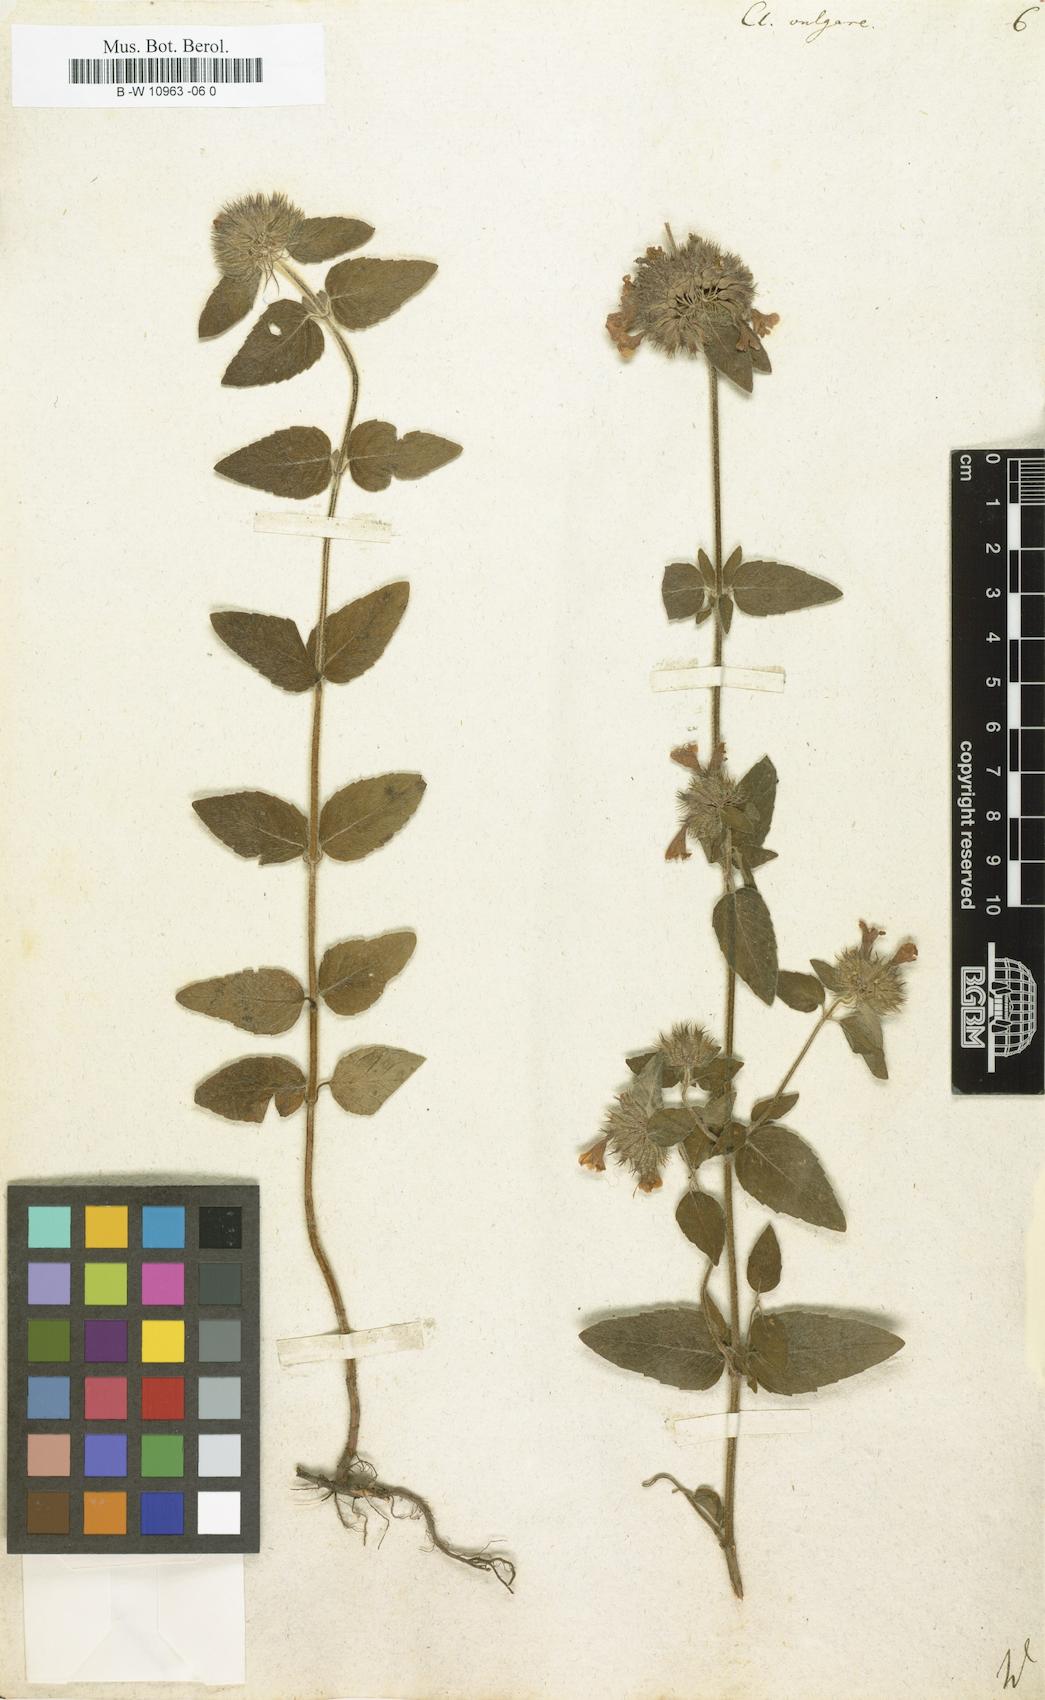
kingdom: Plantae
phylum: Tracheophyta
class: Magnoliopsida
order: Lamiales
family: Lamiaceae
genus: Clinopodium
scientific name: Clinopodium vulgare
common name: Wild basil
